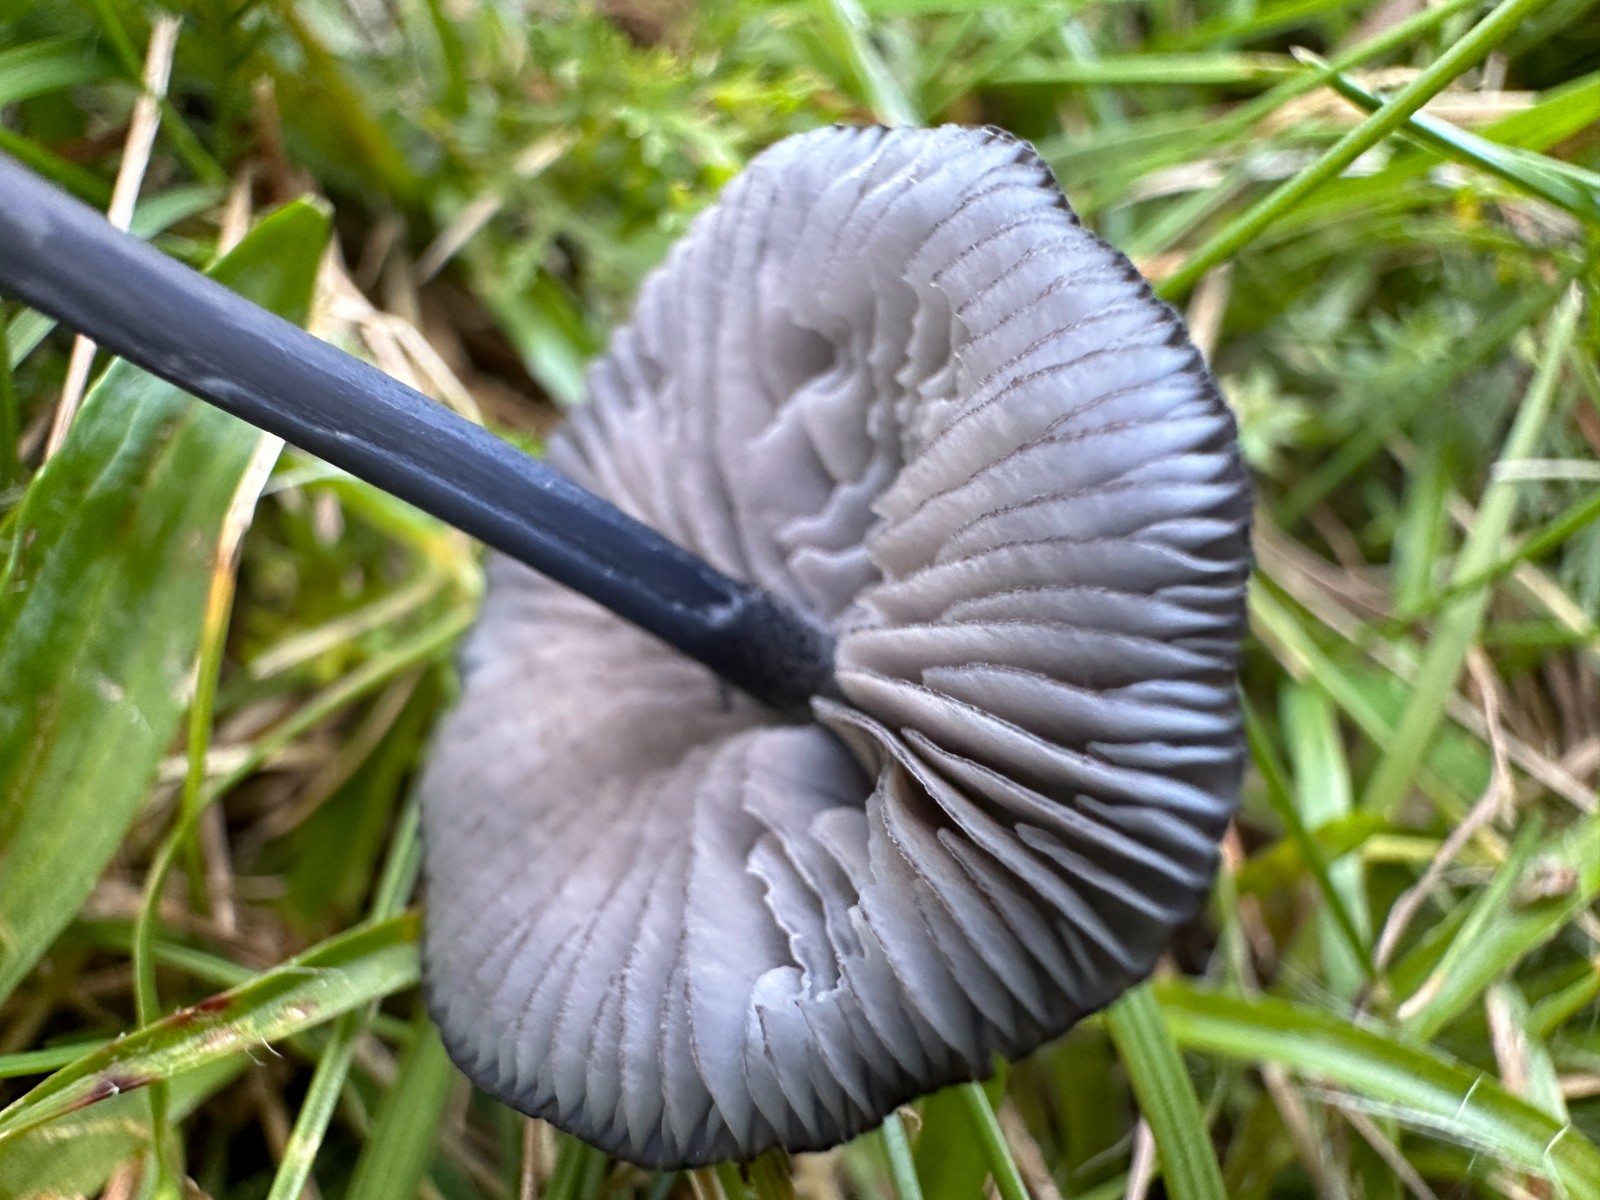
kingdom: Fungi
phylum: Basidiomycota
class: Agaricomycetes
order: Agaricales
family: Entolomataceae
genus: Entoloma
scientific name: Entoloma
